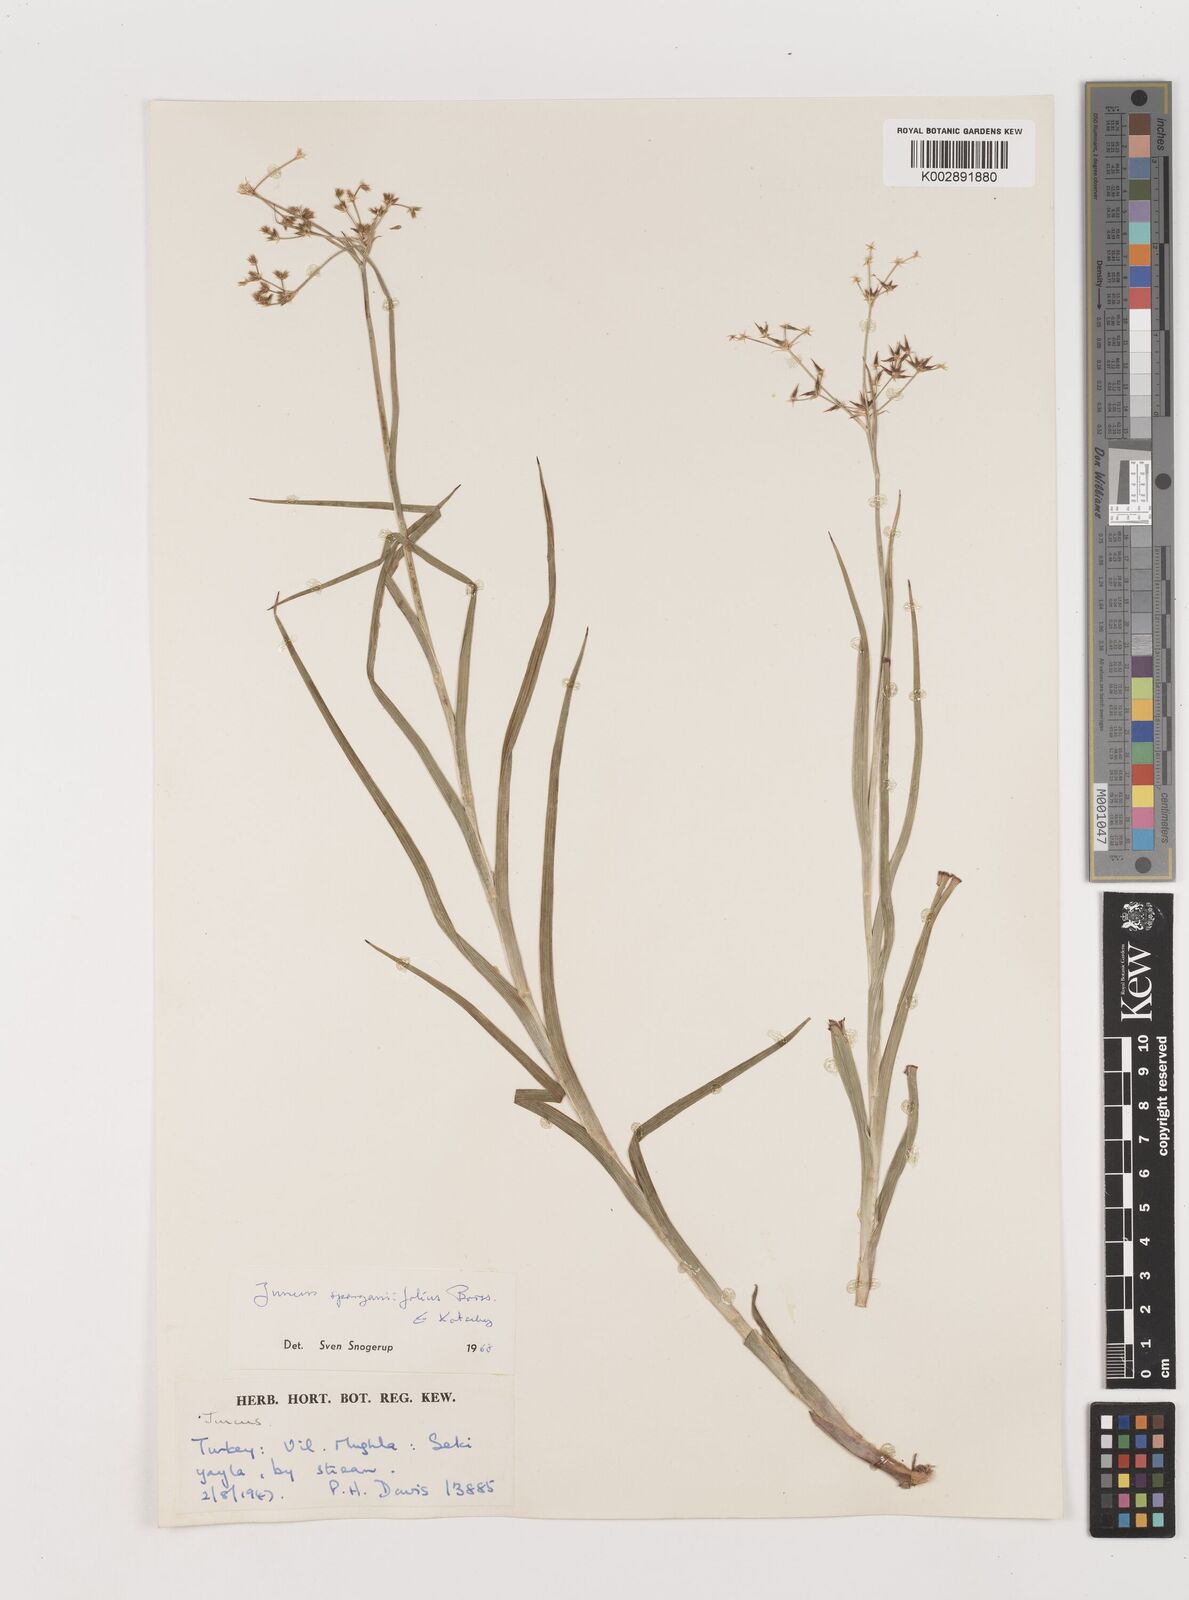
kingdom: Plantae
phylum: Tracheophyta
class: Liliopsida
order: Poales
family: Juncaceae
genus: Juncus
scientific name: Juncus sparganiifolius
